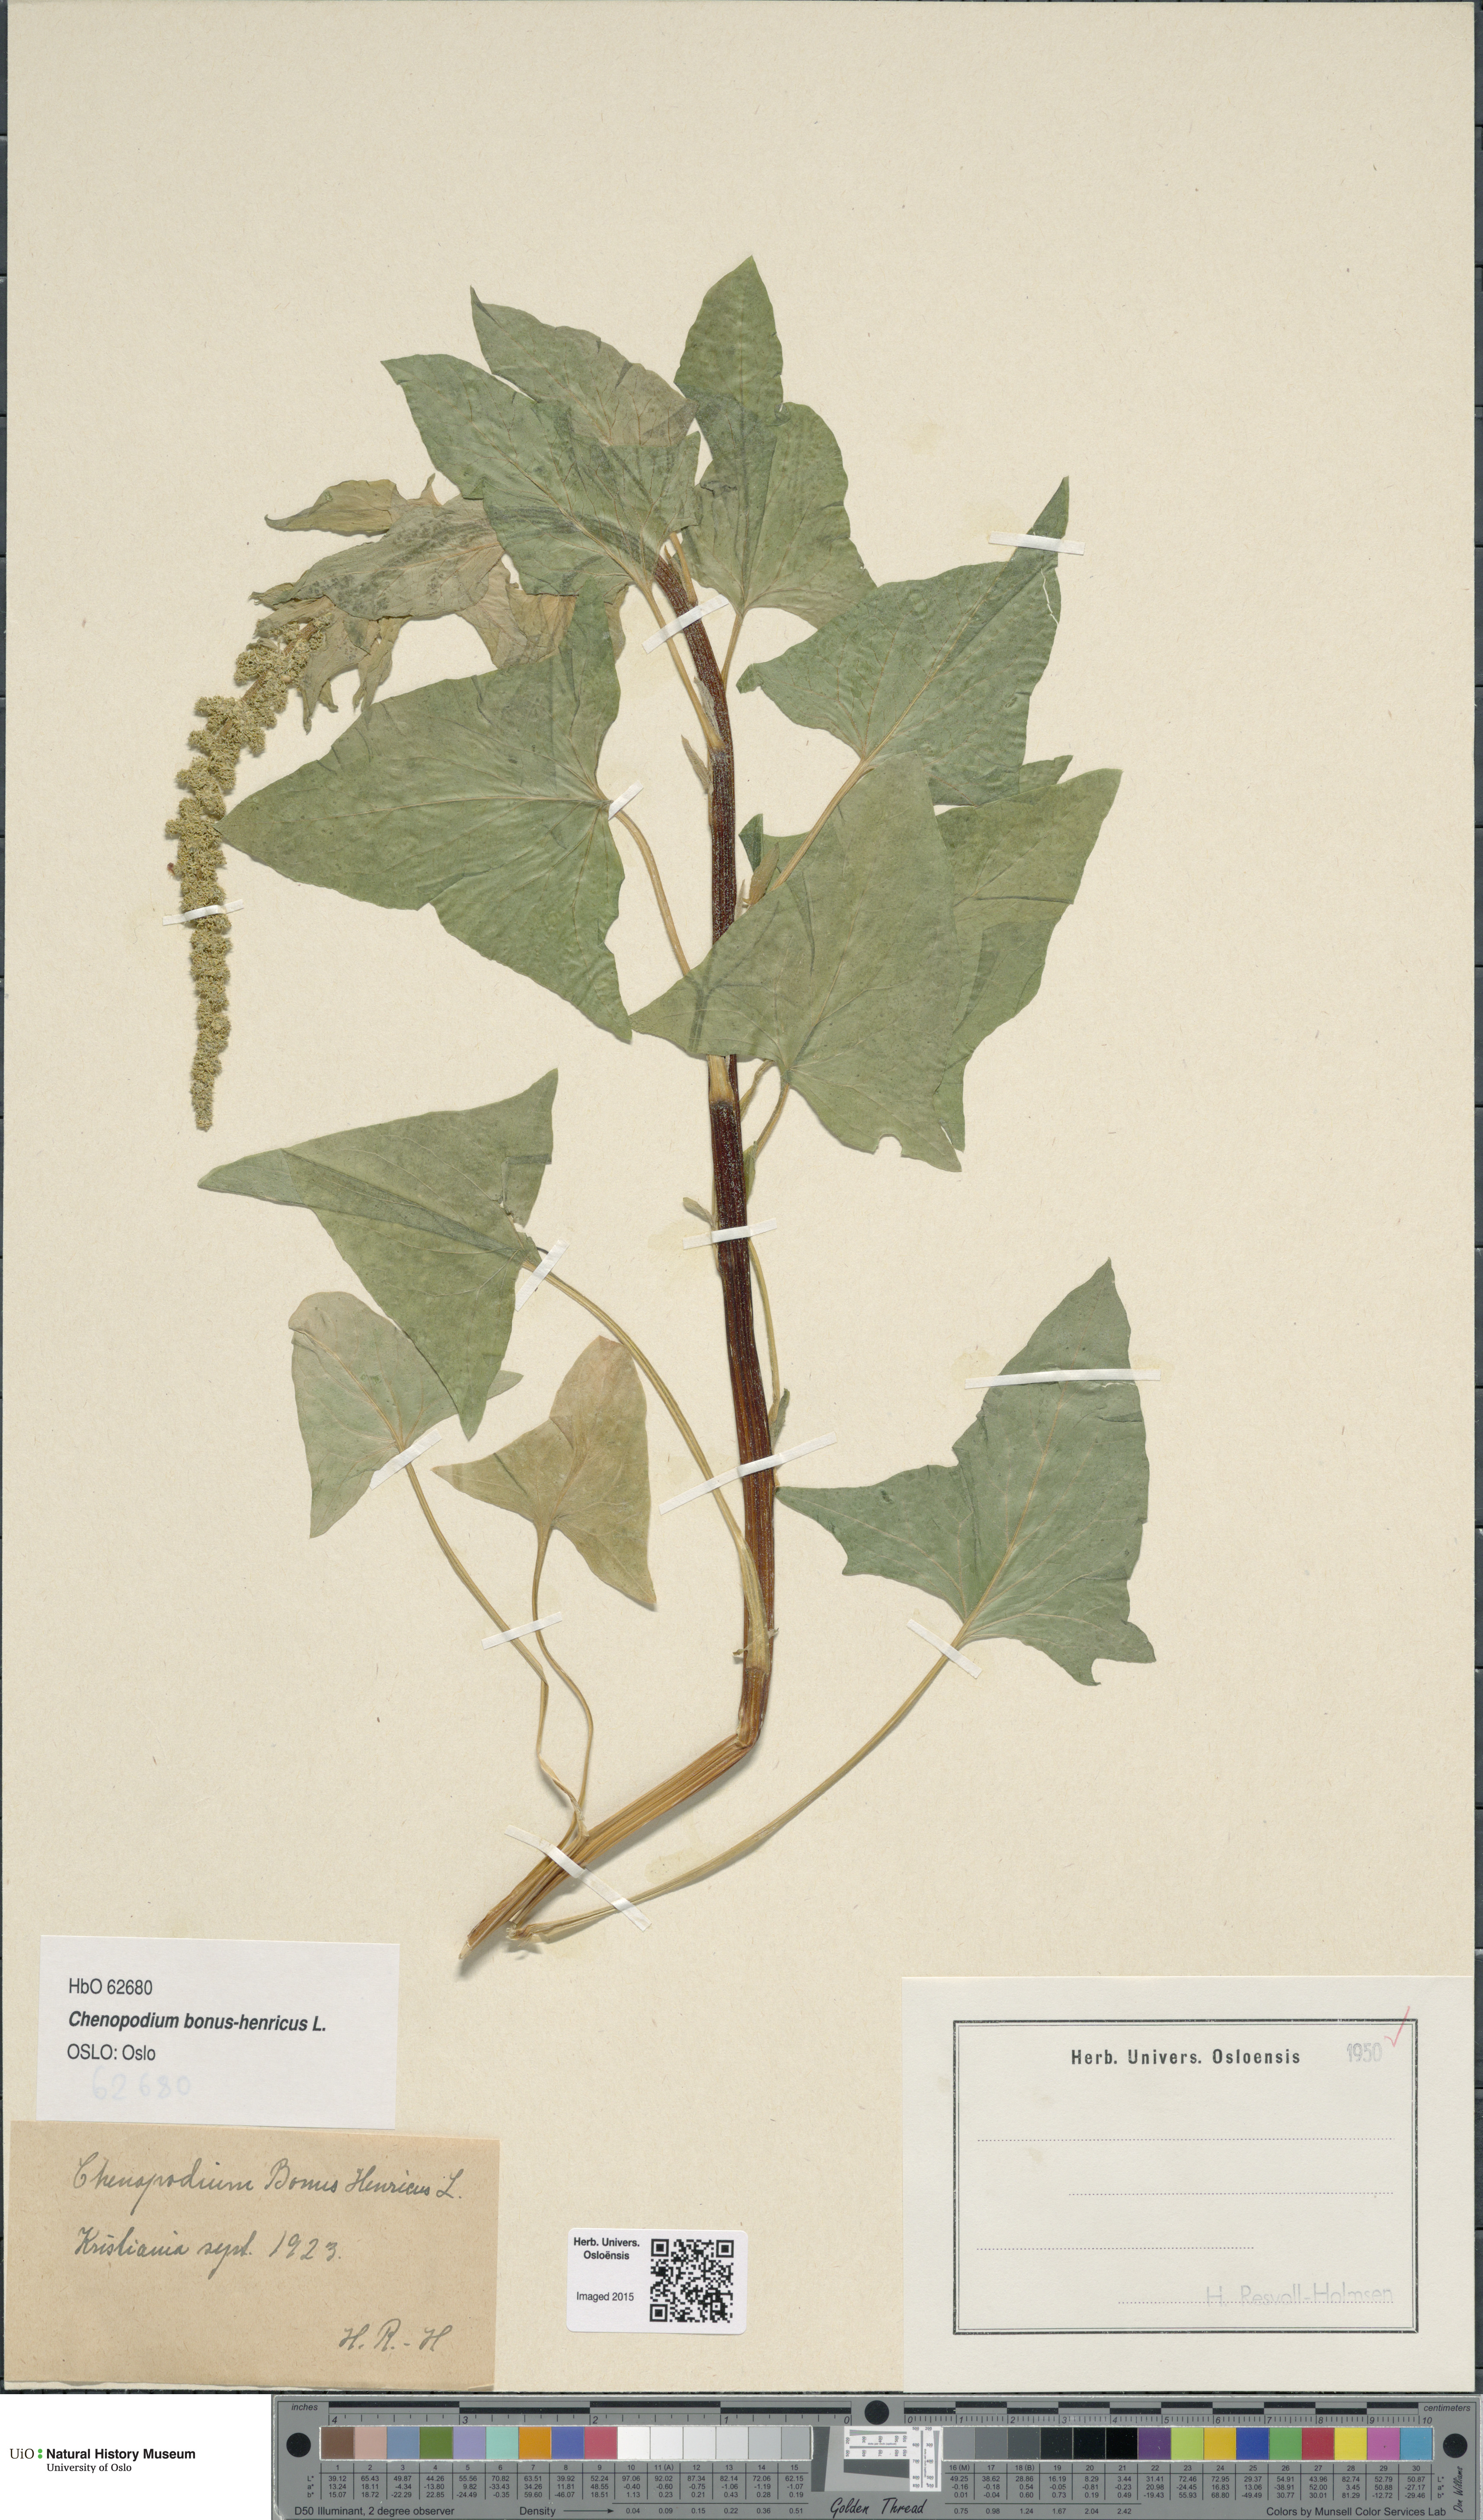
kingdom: Plantae
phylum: Tracheophyta
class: Magnoliopsida
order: Caryophyllales
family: Amaranthaceae
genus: Blitum
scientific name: Blitum bonus-henricus
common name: Good king henry
